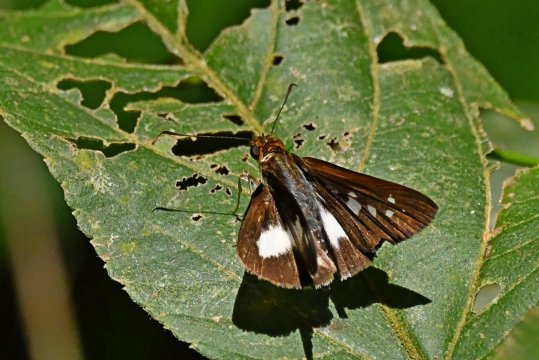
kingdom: Animalia
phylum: Arthropoda
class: Insecta
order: Lepidoptera
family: Hesperiidae
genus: Vettius
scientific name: Vettius lafrenaye
